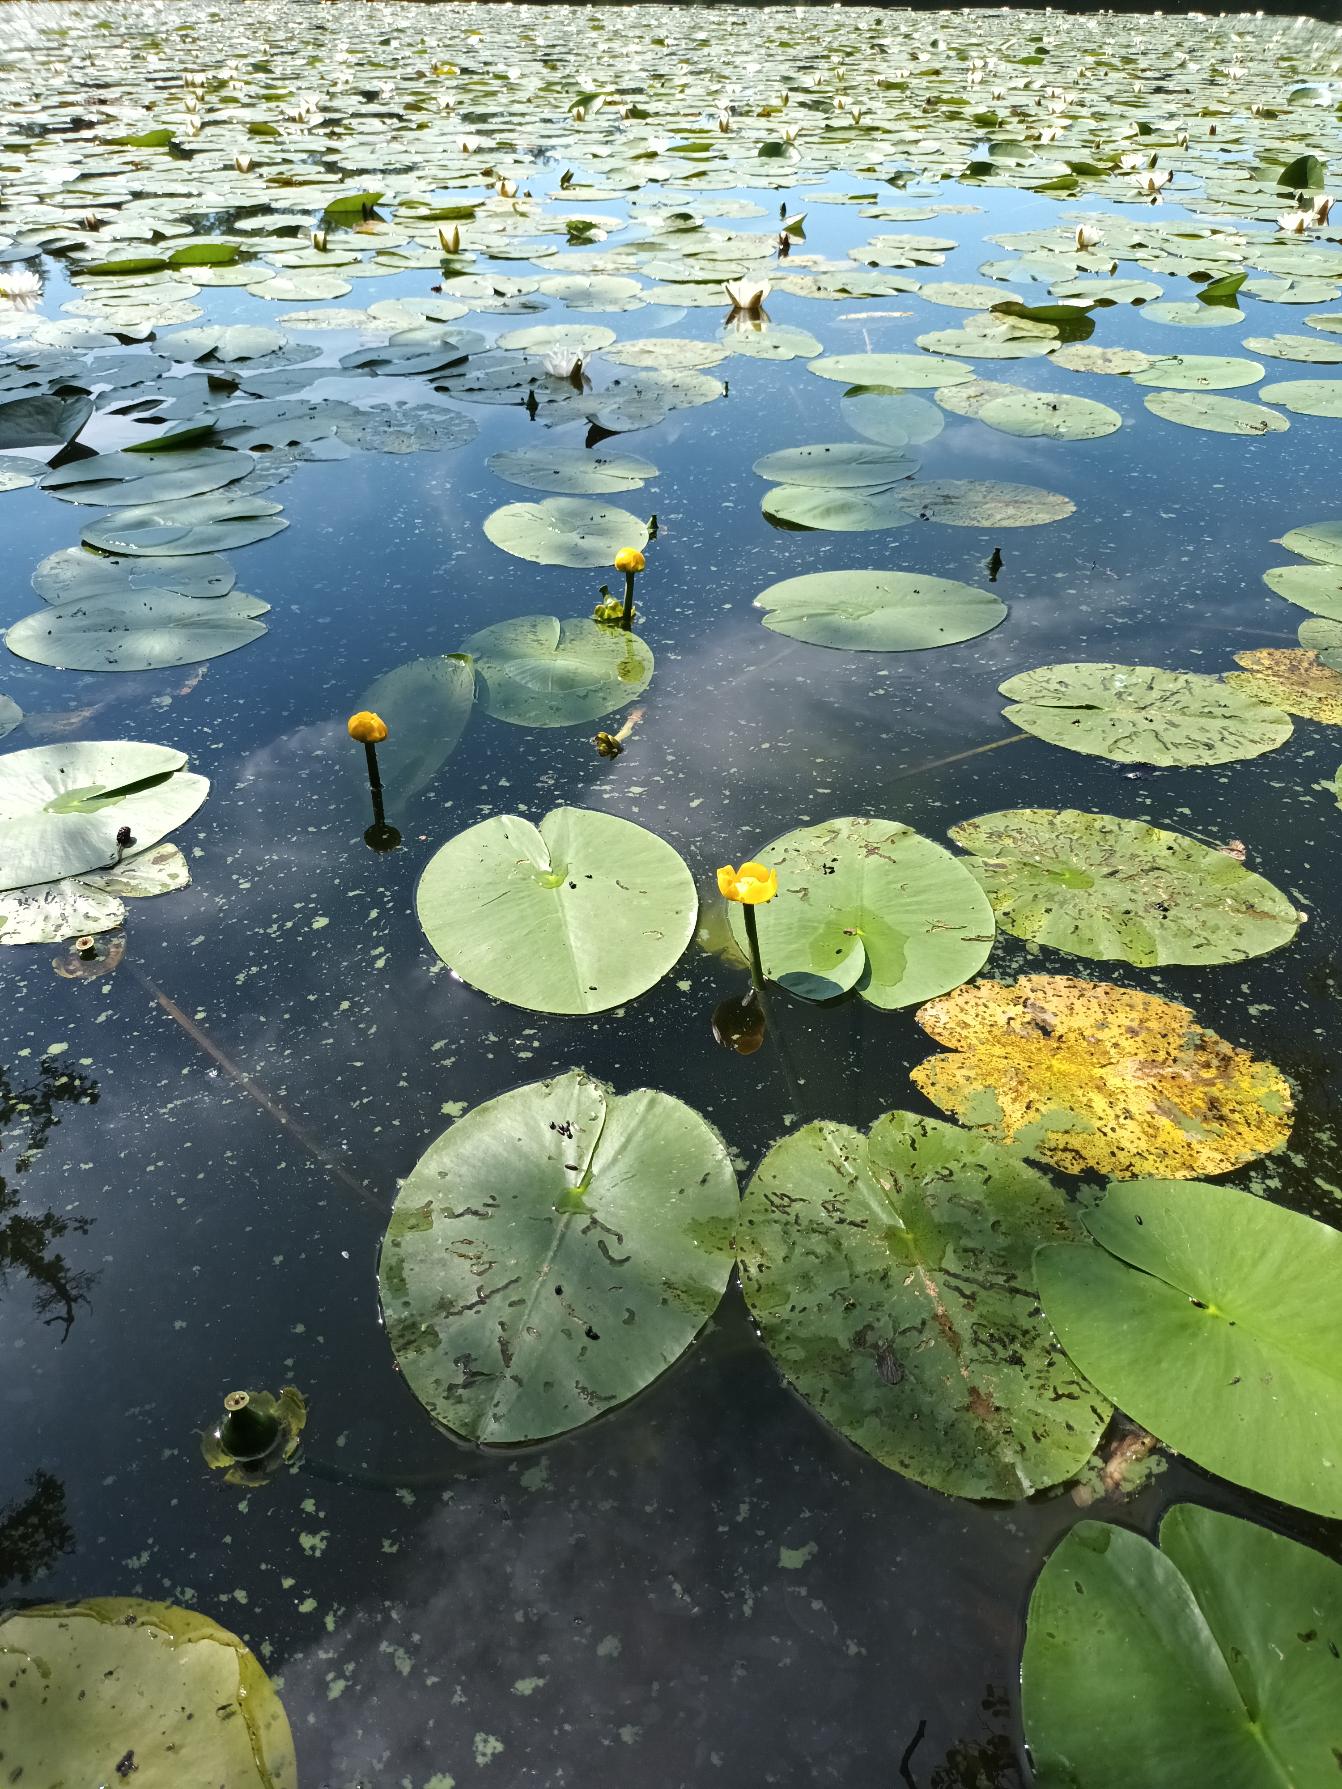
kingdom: Plantae
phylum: Tracheophyta
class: Magnoliopsida
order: Nymphaeales
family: Nymphaeaceae
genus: Nuphar
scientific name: Nuphar lutea
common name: Gul åkande
